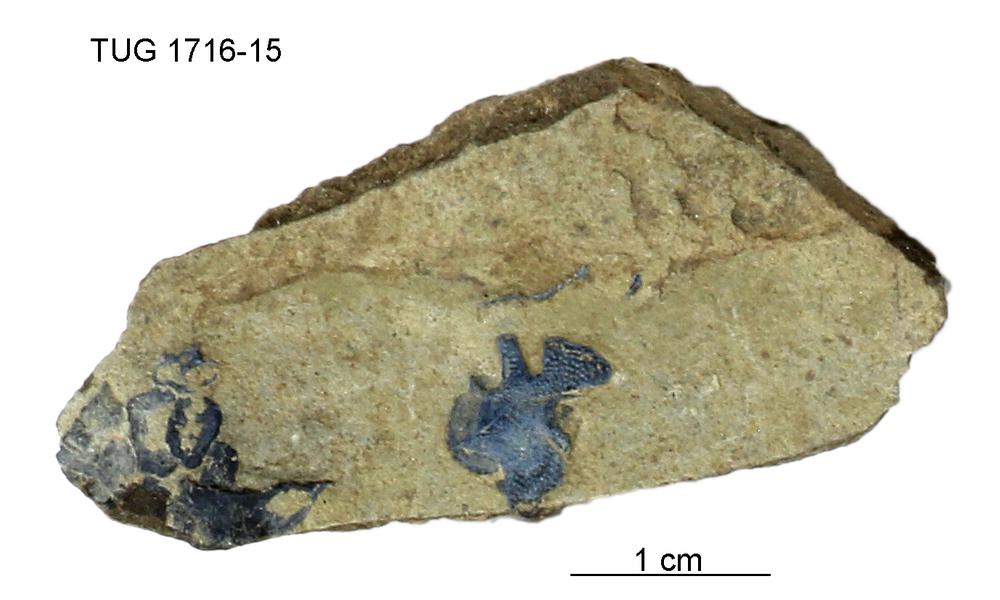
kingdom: Animalia
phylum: Chordata
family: Coccosteidae
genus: Millerosteus
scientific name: Millerosteus minor
